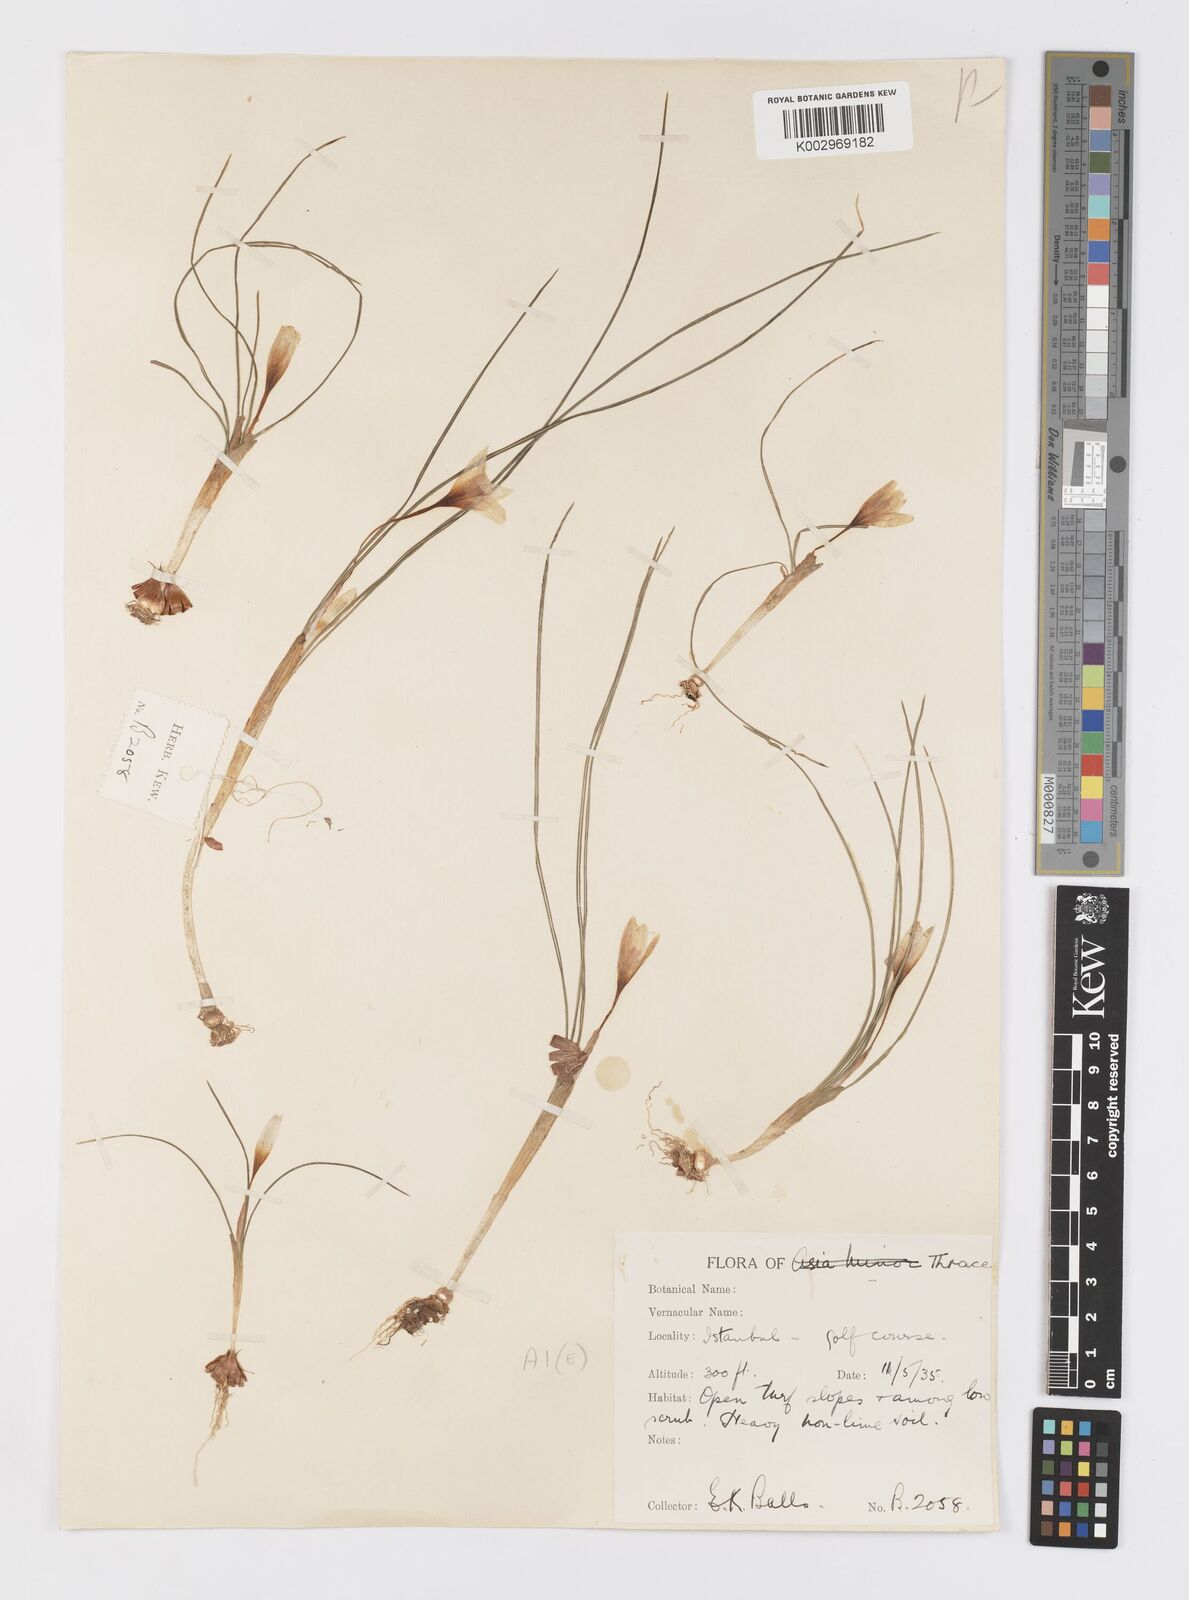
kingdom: Plantae
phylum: Tracheophyta
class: Liliopsida
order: Asparagales
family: Iridaceae
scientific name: Iridaceae
